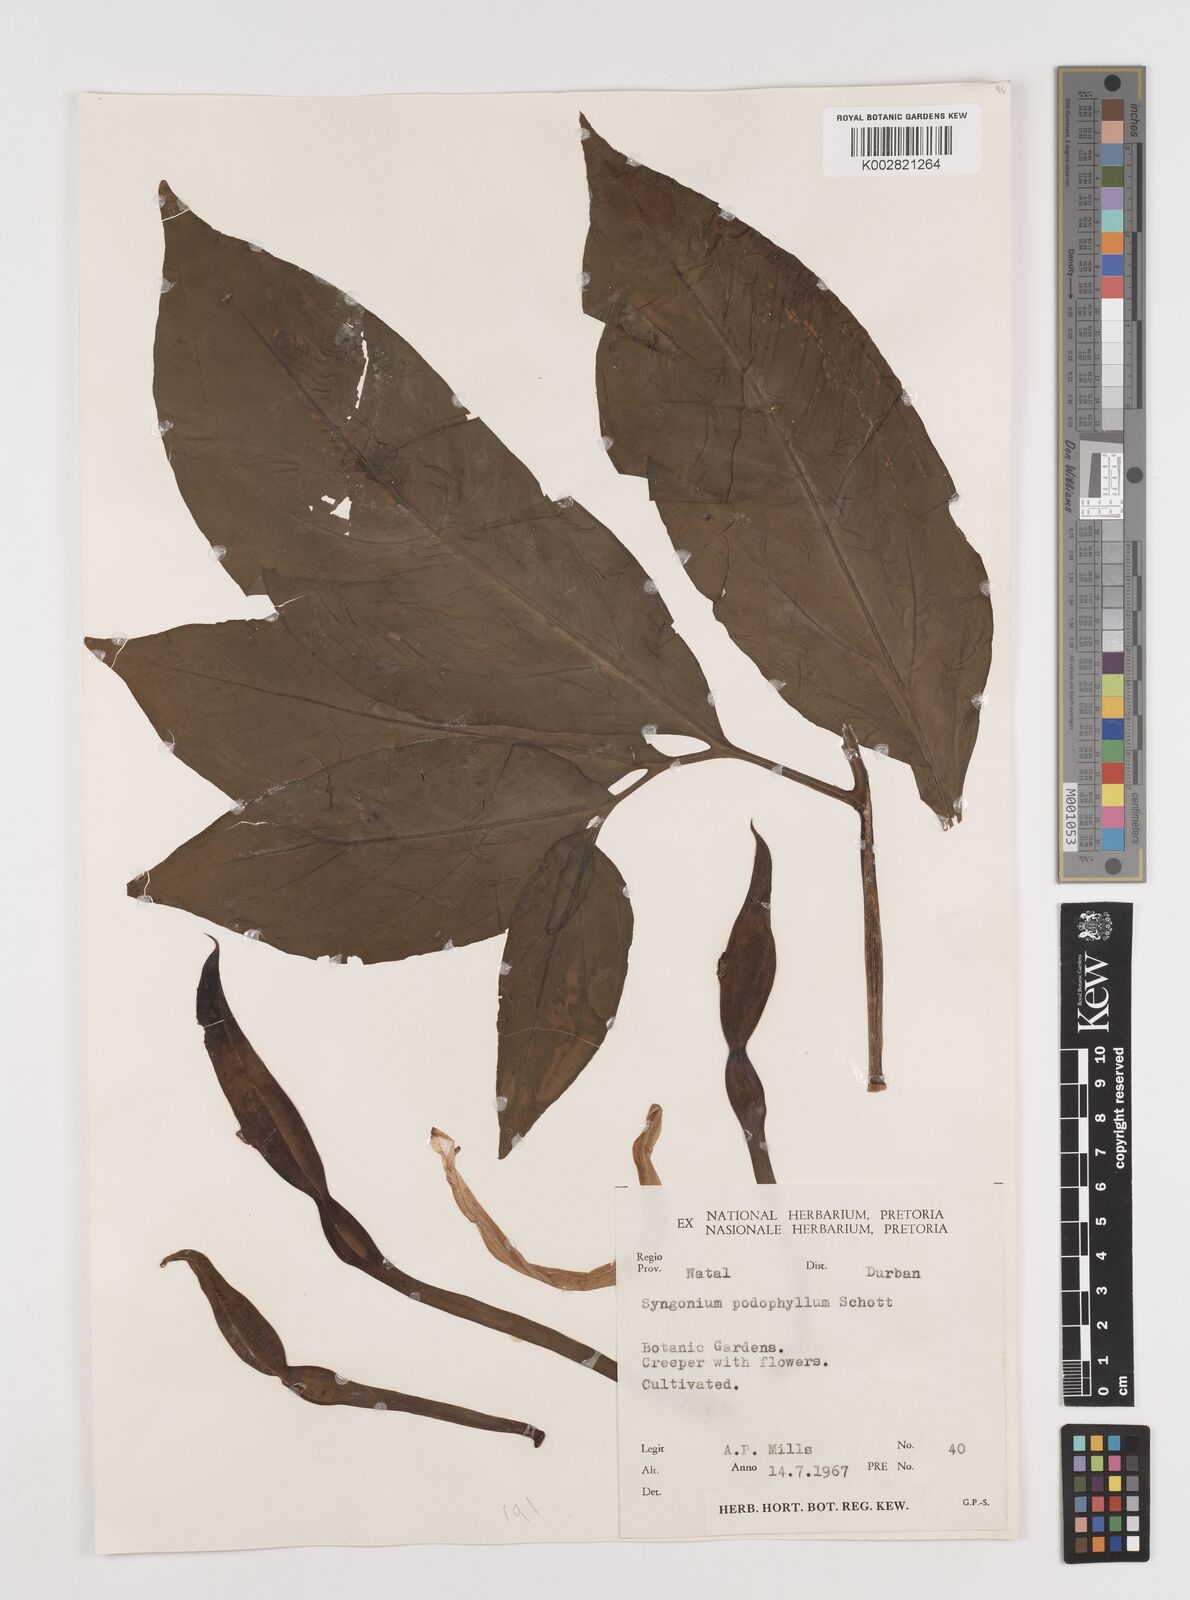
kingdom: Plantae
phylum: Tracheophyta
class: Liliopsida
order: Alismatales
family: Araceae
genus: Syngonium
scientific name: Syngonium podophyllum
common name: American evergreen
